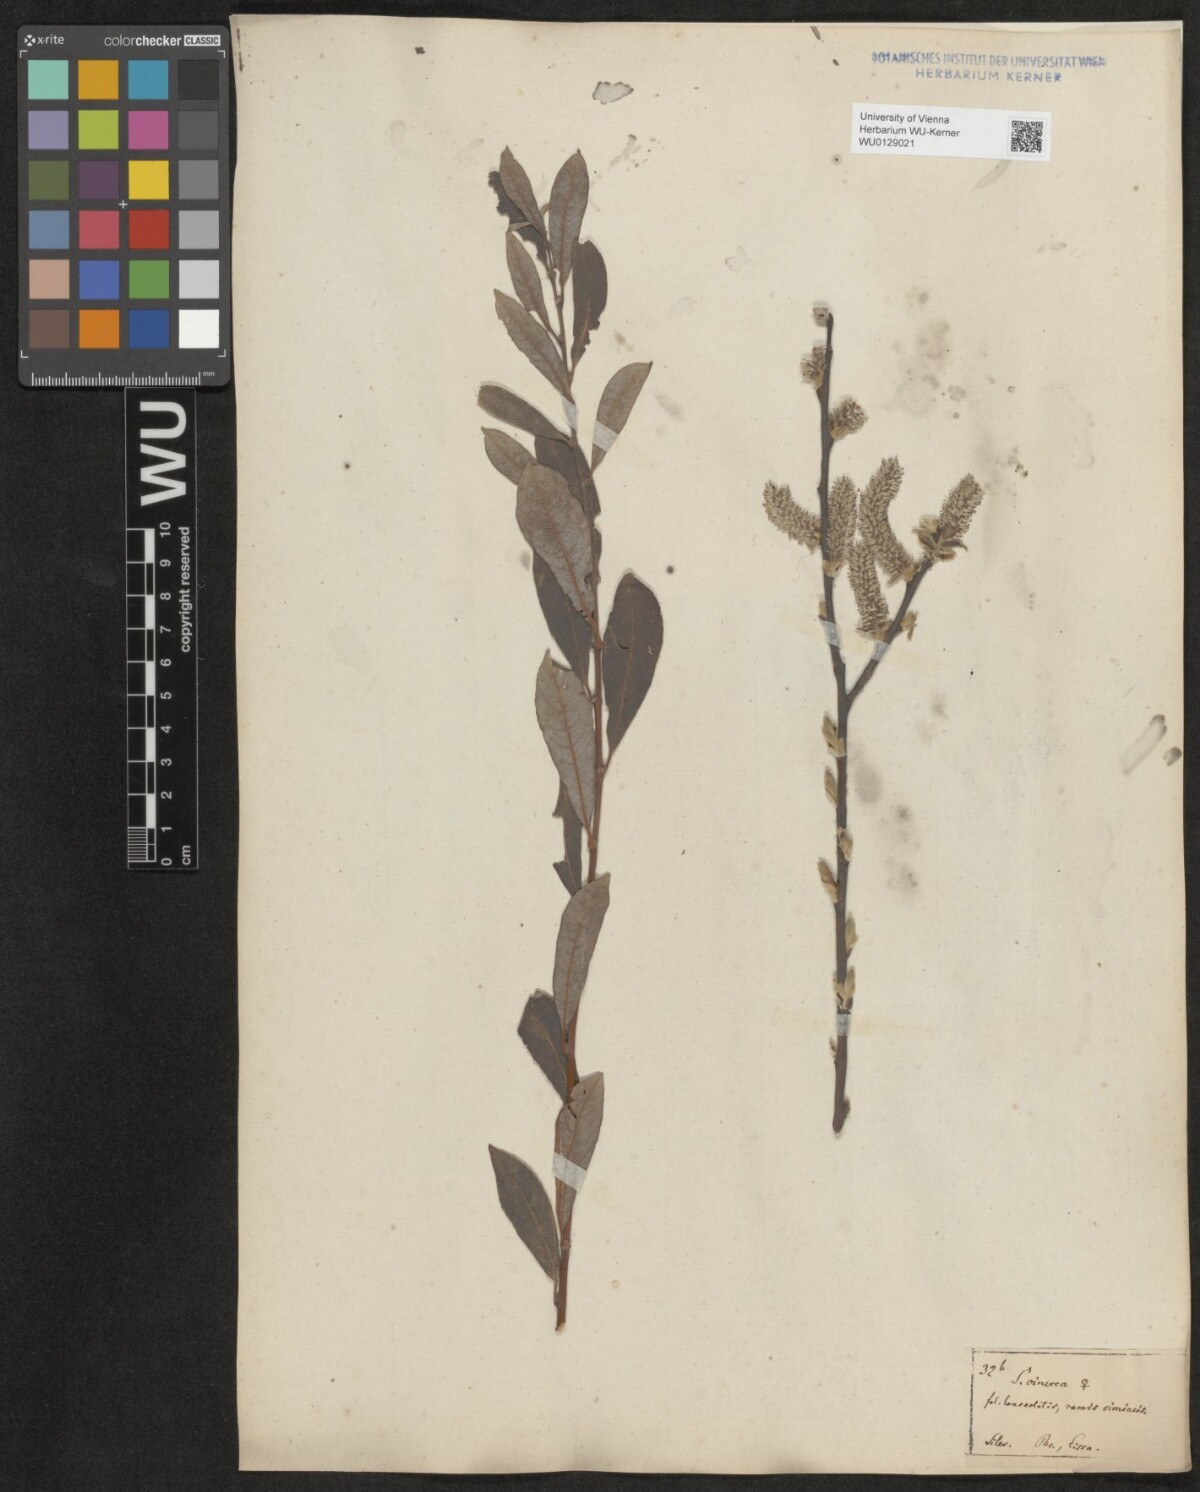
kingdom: Plantae
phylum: Tracheophyta
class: Magnoliopsida
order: Malpighiales
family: Salicaceae
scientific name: Salicaceae
